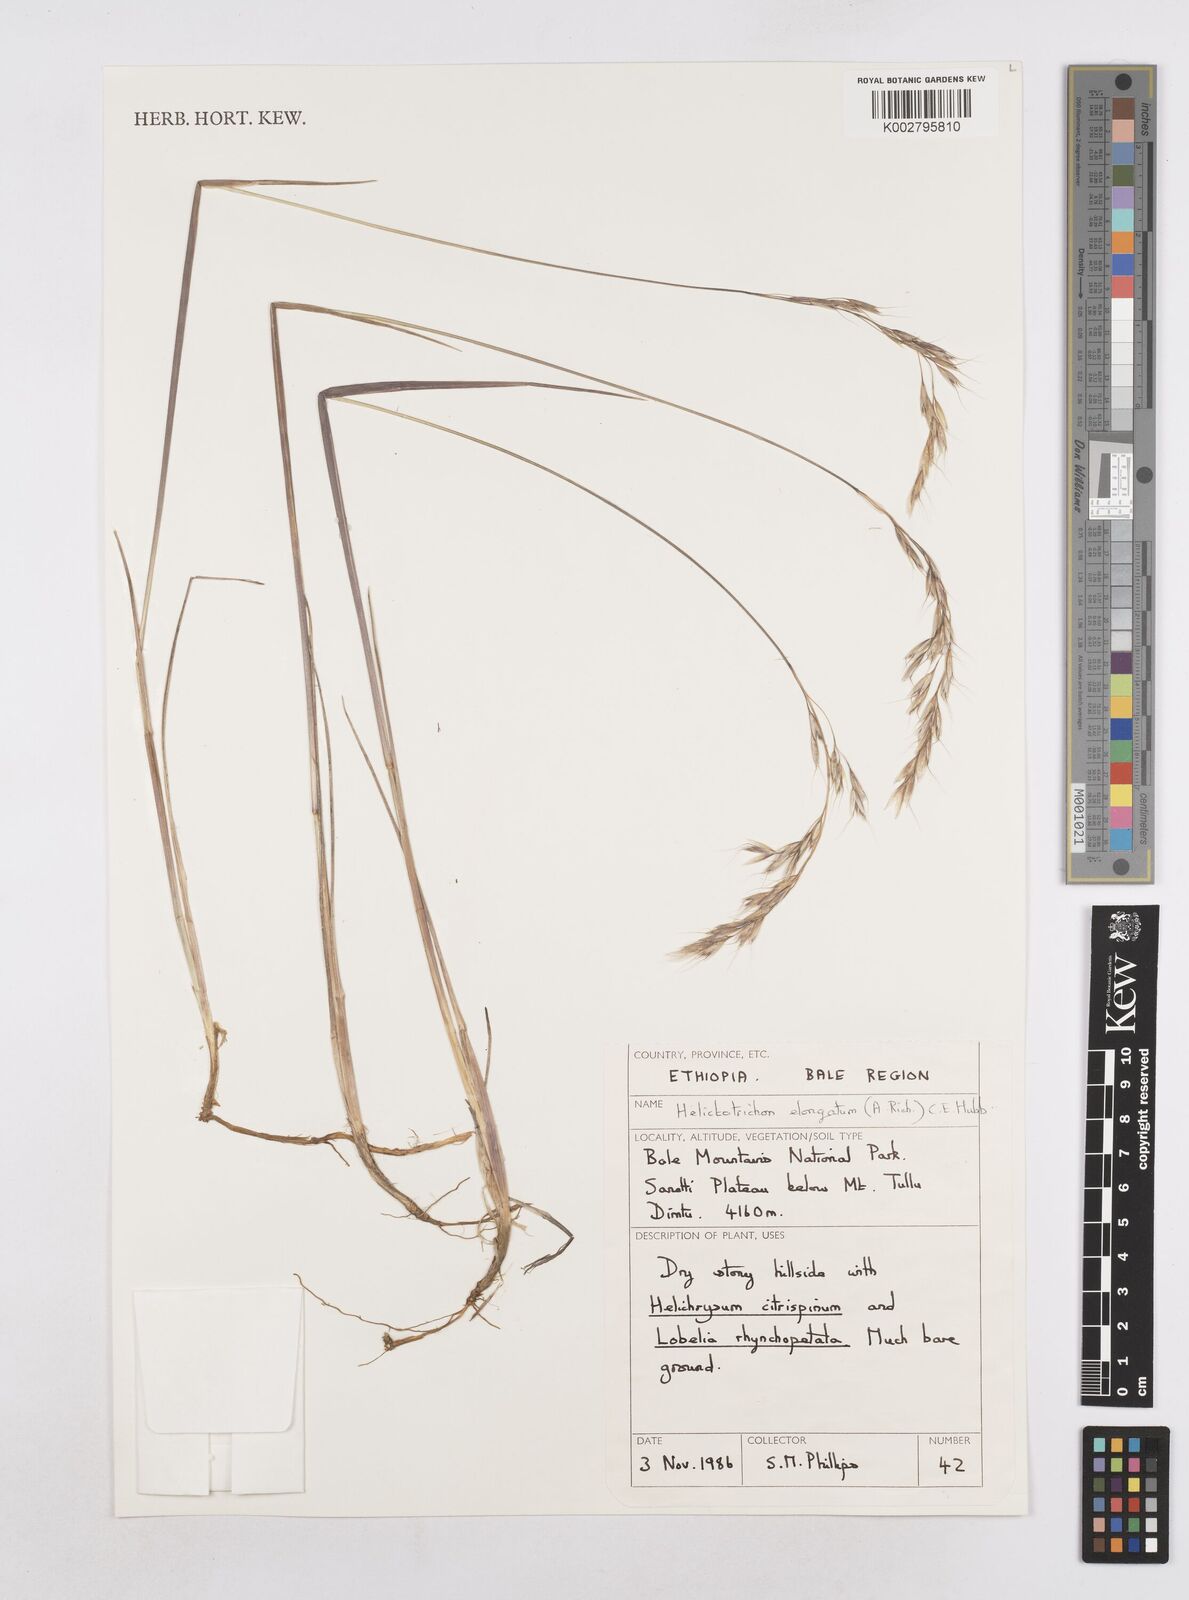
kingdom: Plantae
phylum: Tracheophyta
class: Liliopsida
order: Poales
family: Poaceae
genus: Trisetopsis
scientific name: Trisetopsis elongata
